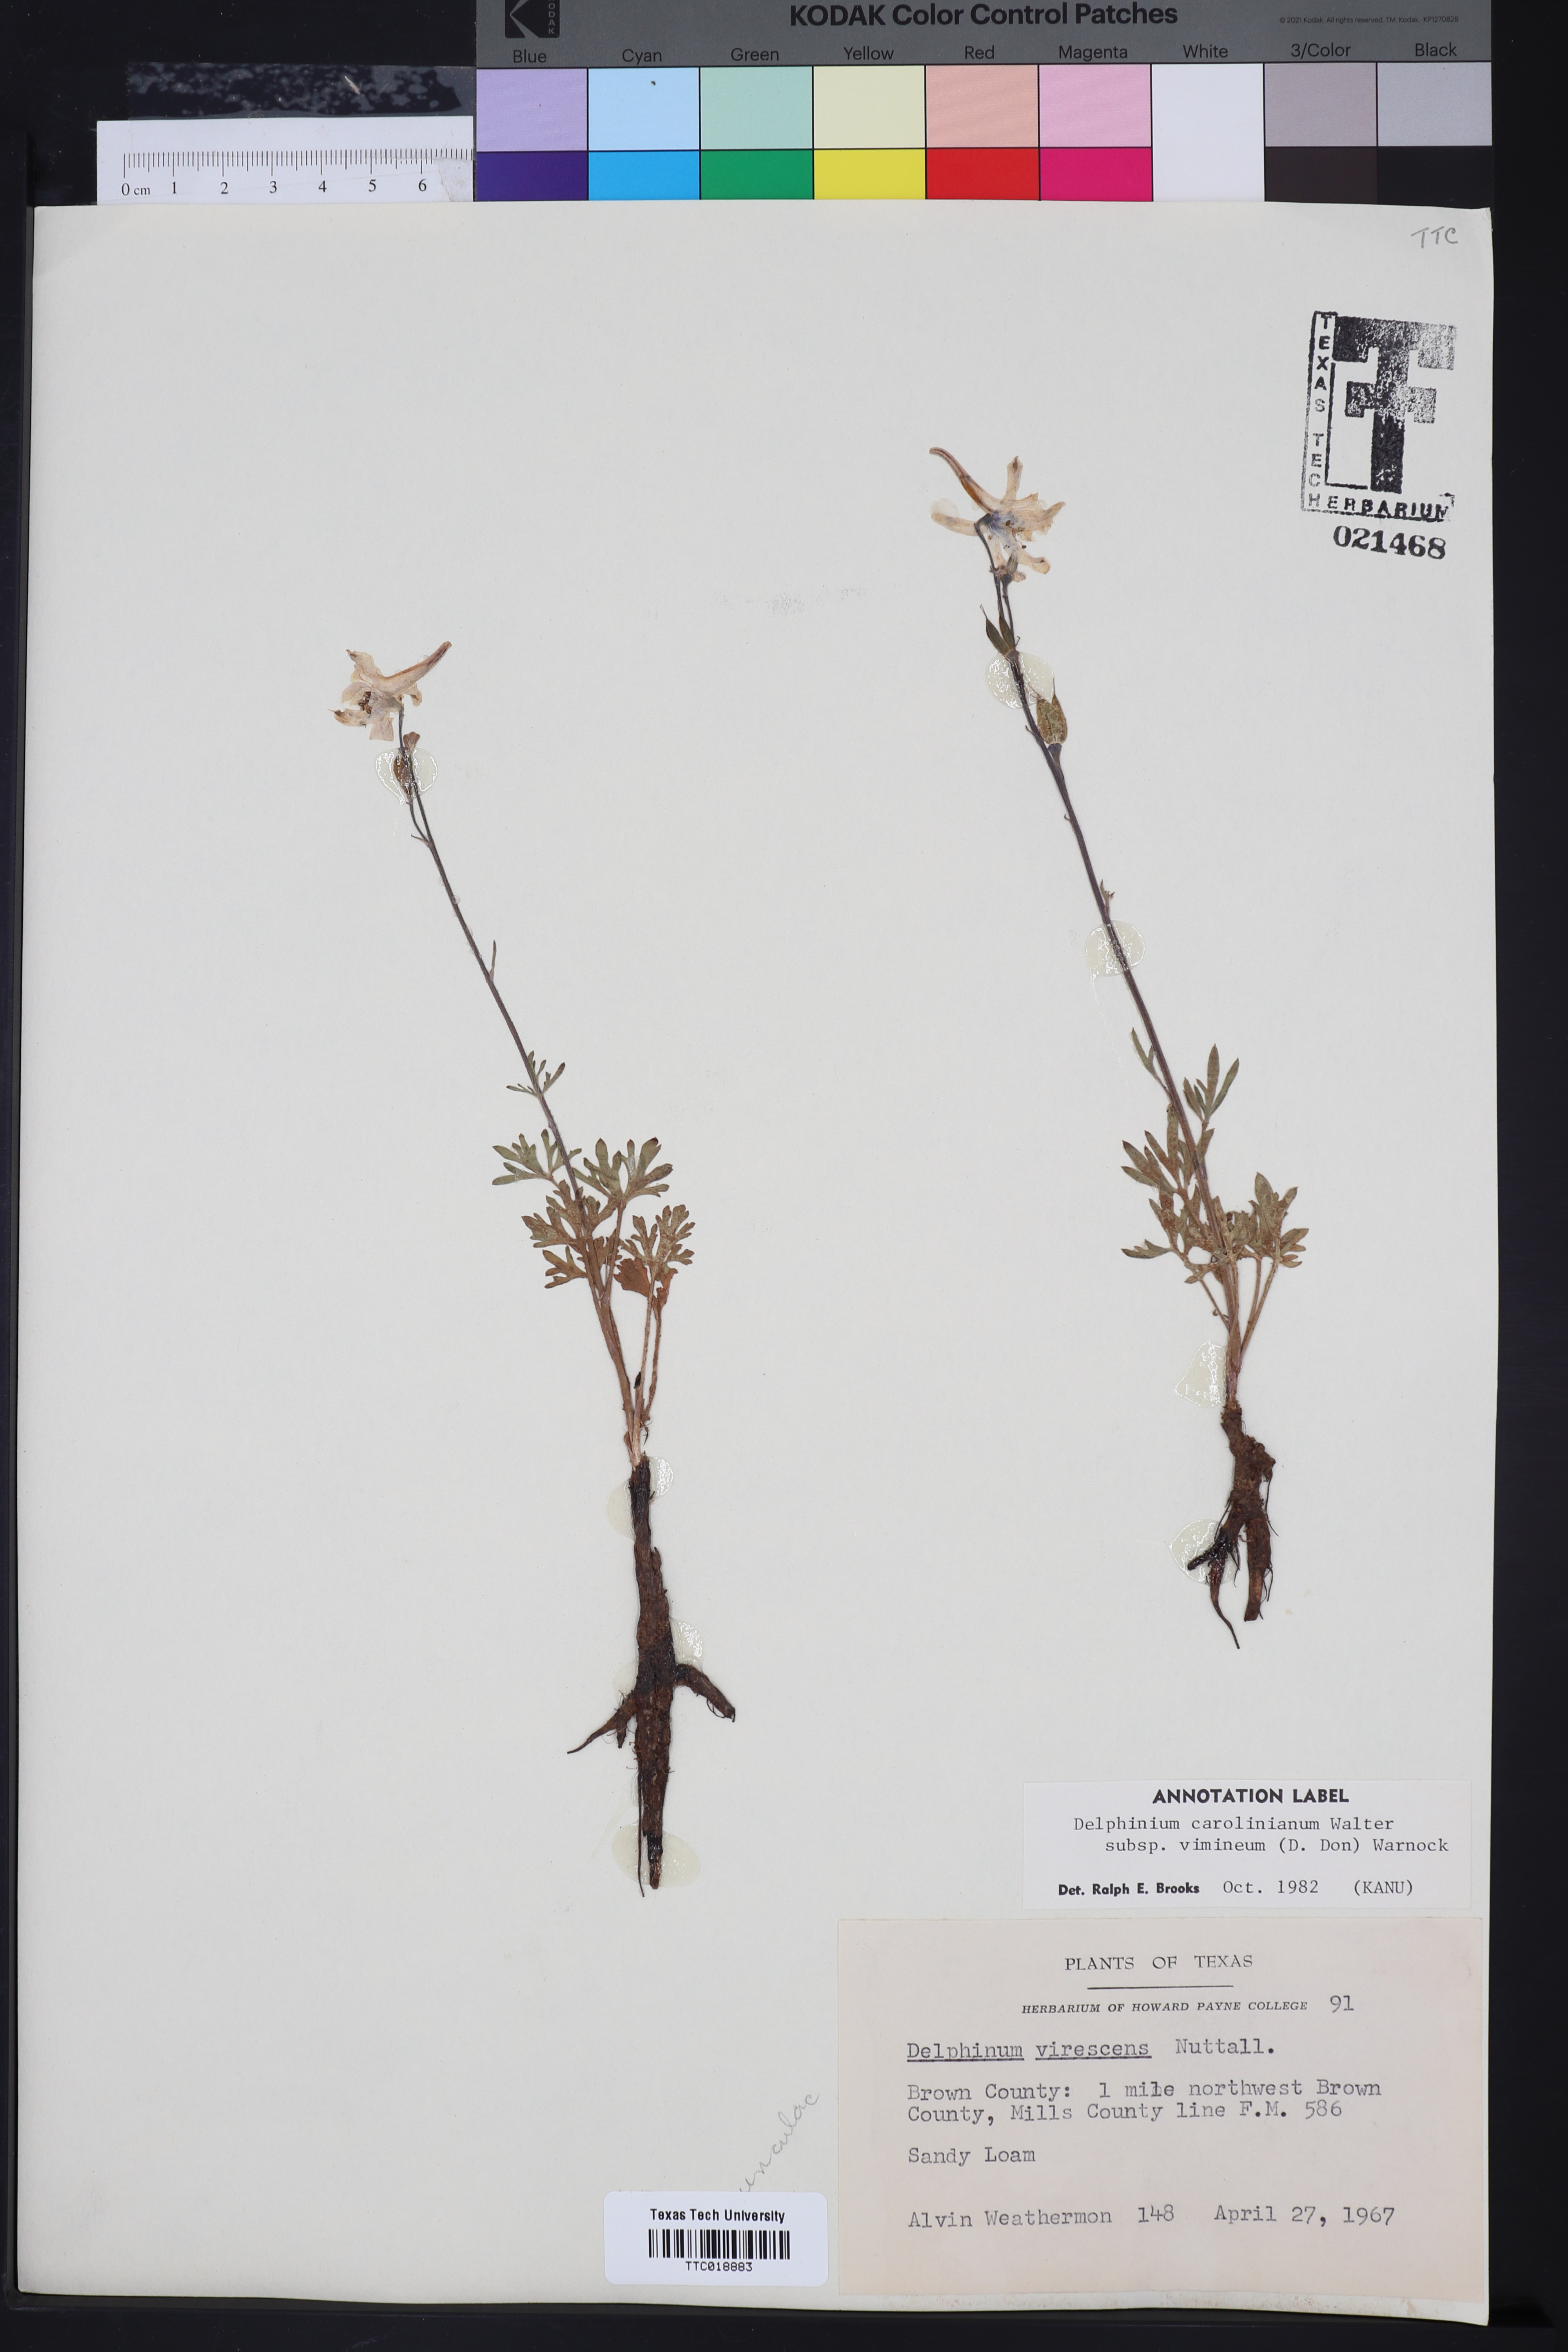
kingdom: Plantae
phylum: Tracheophyta
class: Magnoliopsida
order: Ranunculales
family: Ranunculaceae
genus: Delphinium
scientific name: Delphinium carolinianum
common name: Carolina larkspur
